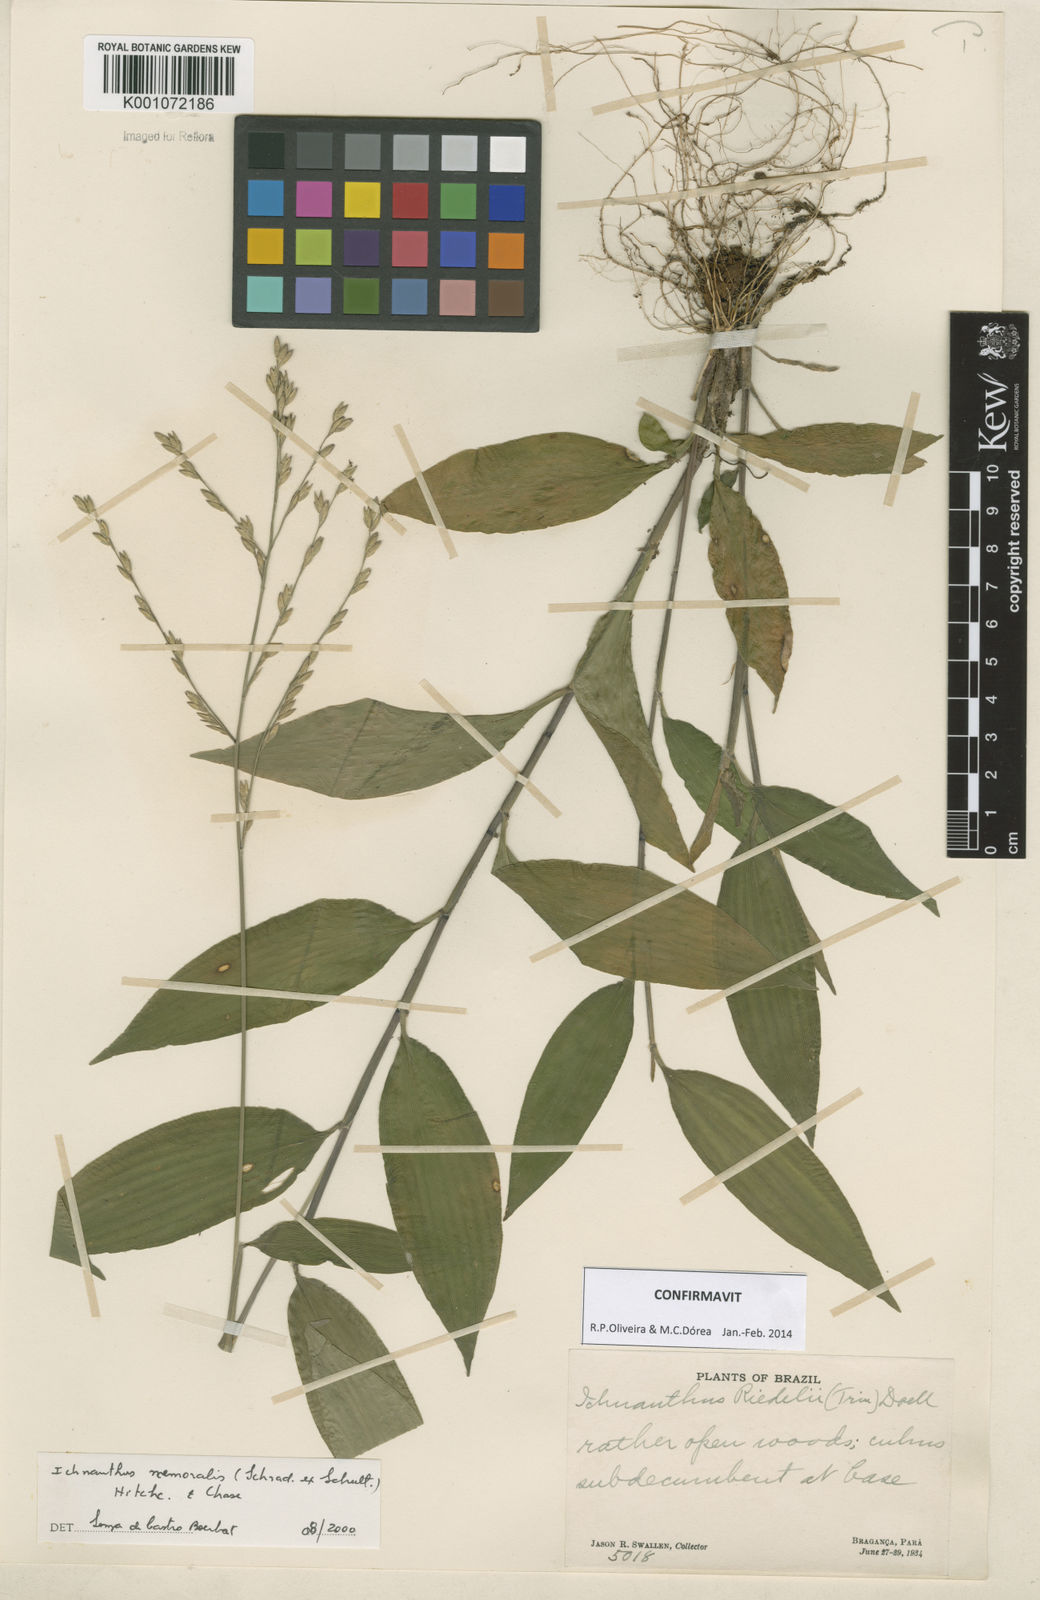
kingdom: Plantae
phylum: Tracheophyta
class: Liliopsida
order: Poales
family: Poaceae
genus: Ichnanthus
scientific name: Ichnanthus nemoralis
